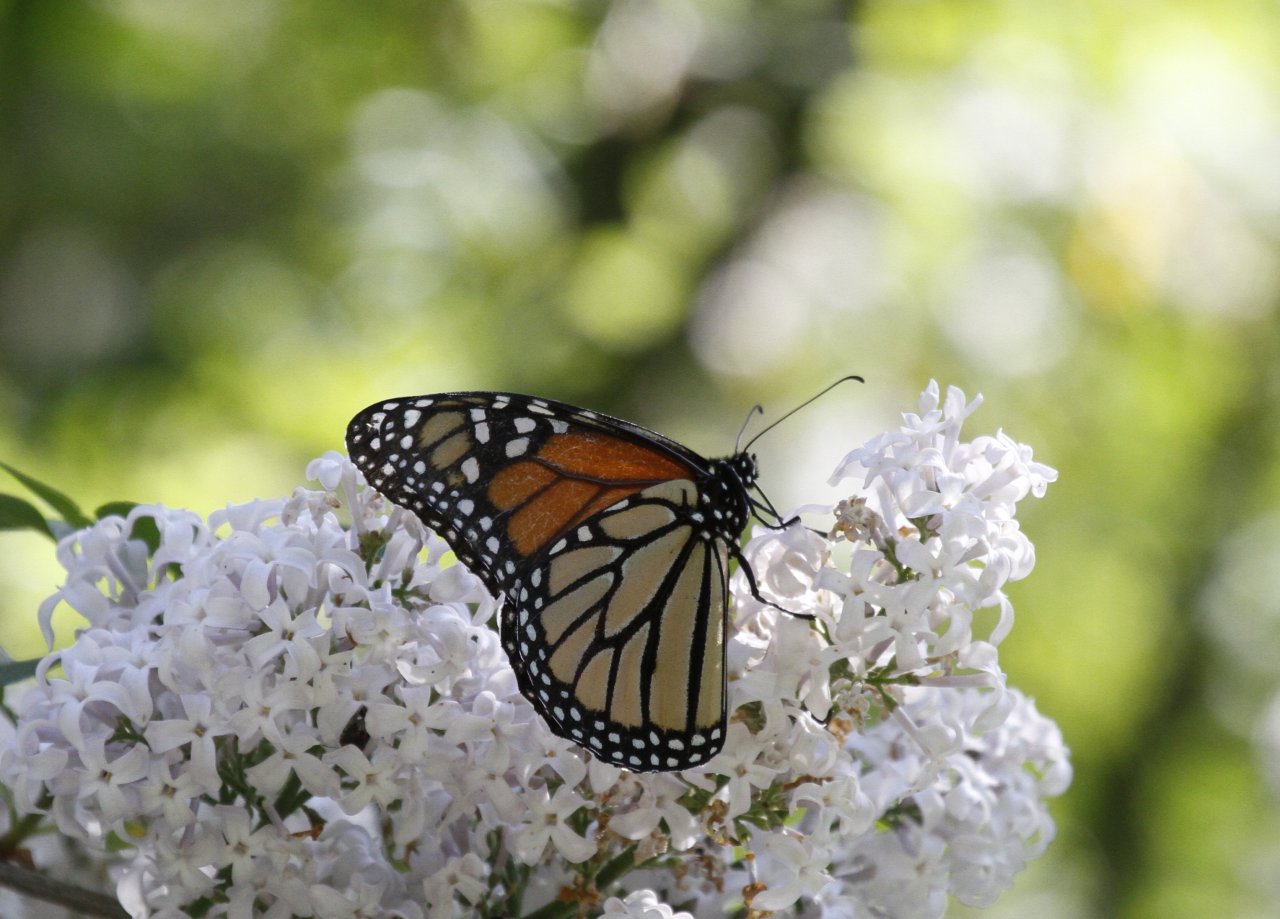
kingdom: Animalia
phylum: Arthropoda
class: Insecta
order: Lepidoptera
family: Nymphalidae
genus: Danaus
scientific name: Danaus plexippus
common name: Monarch
